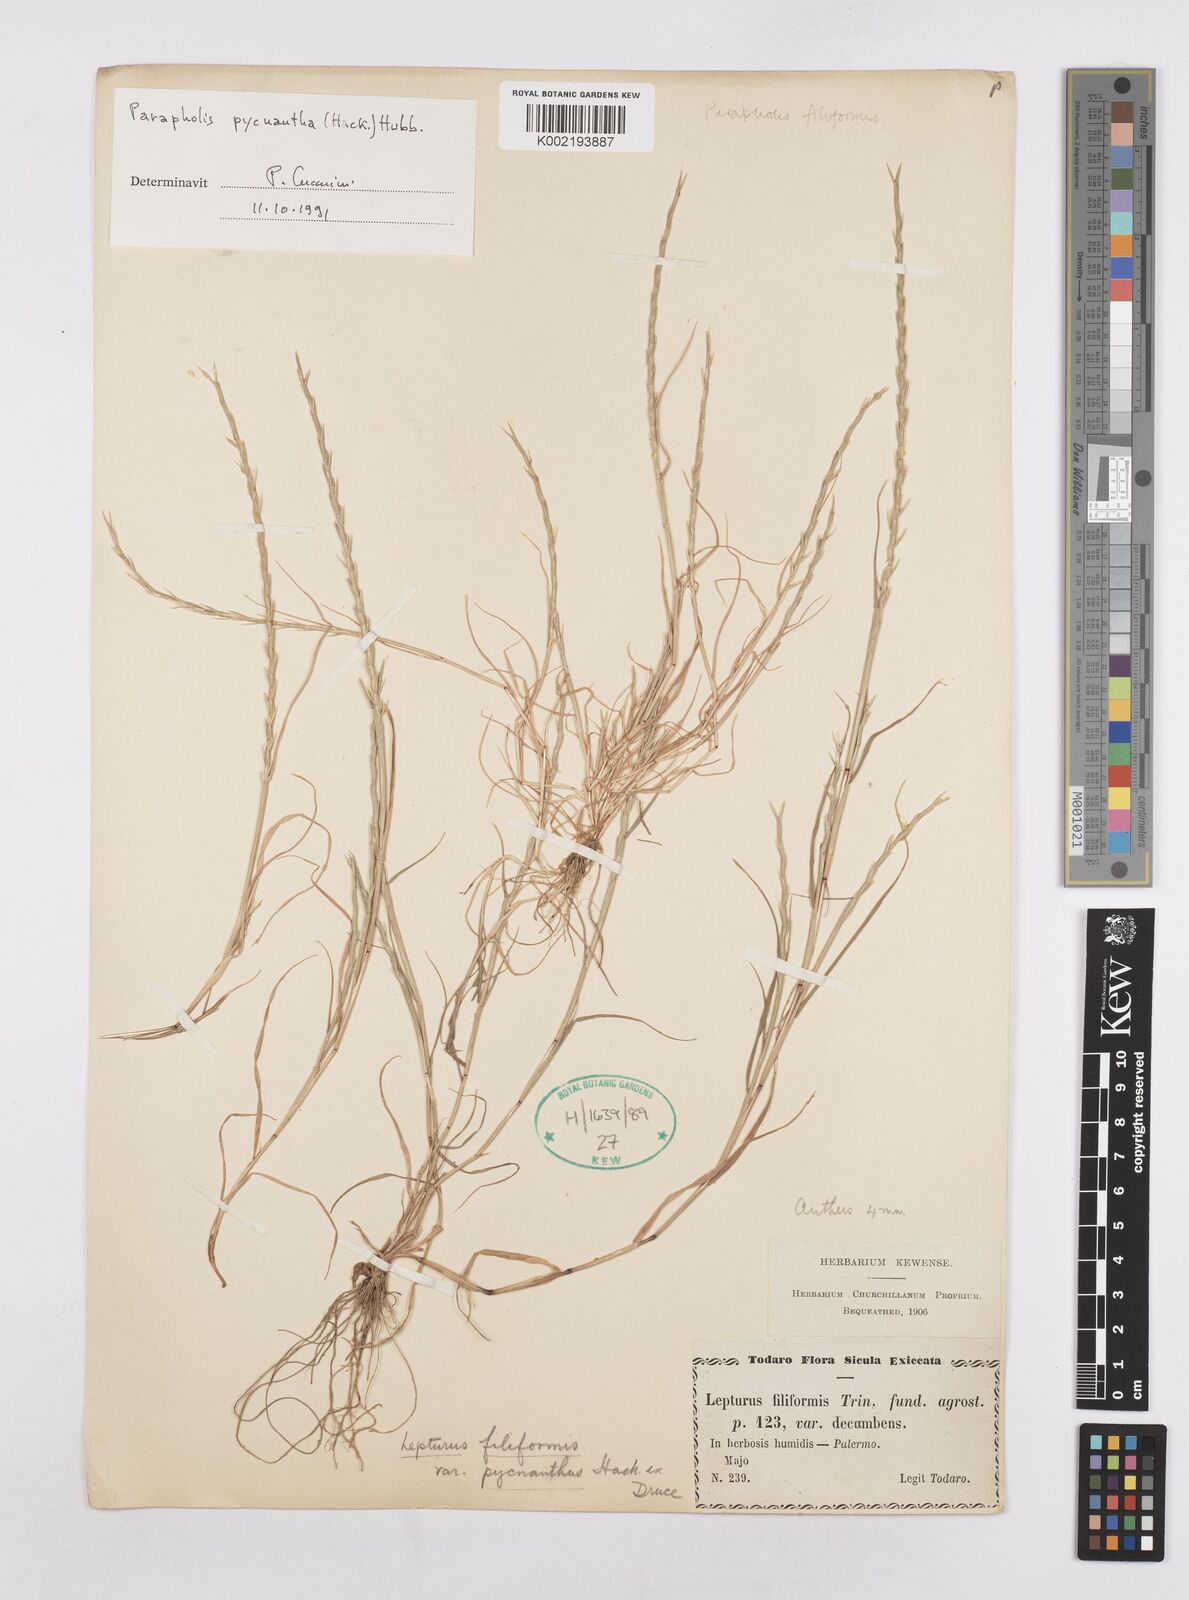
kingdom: Plantae
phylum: Tracheophyta
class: Liliopsida
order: Poales
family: Poaceae
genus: Parapholis
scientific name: Parapholis pycnantha
